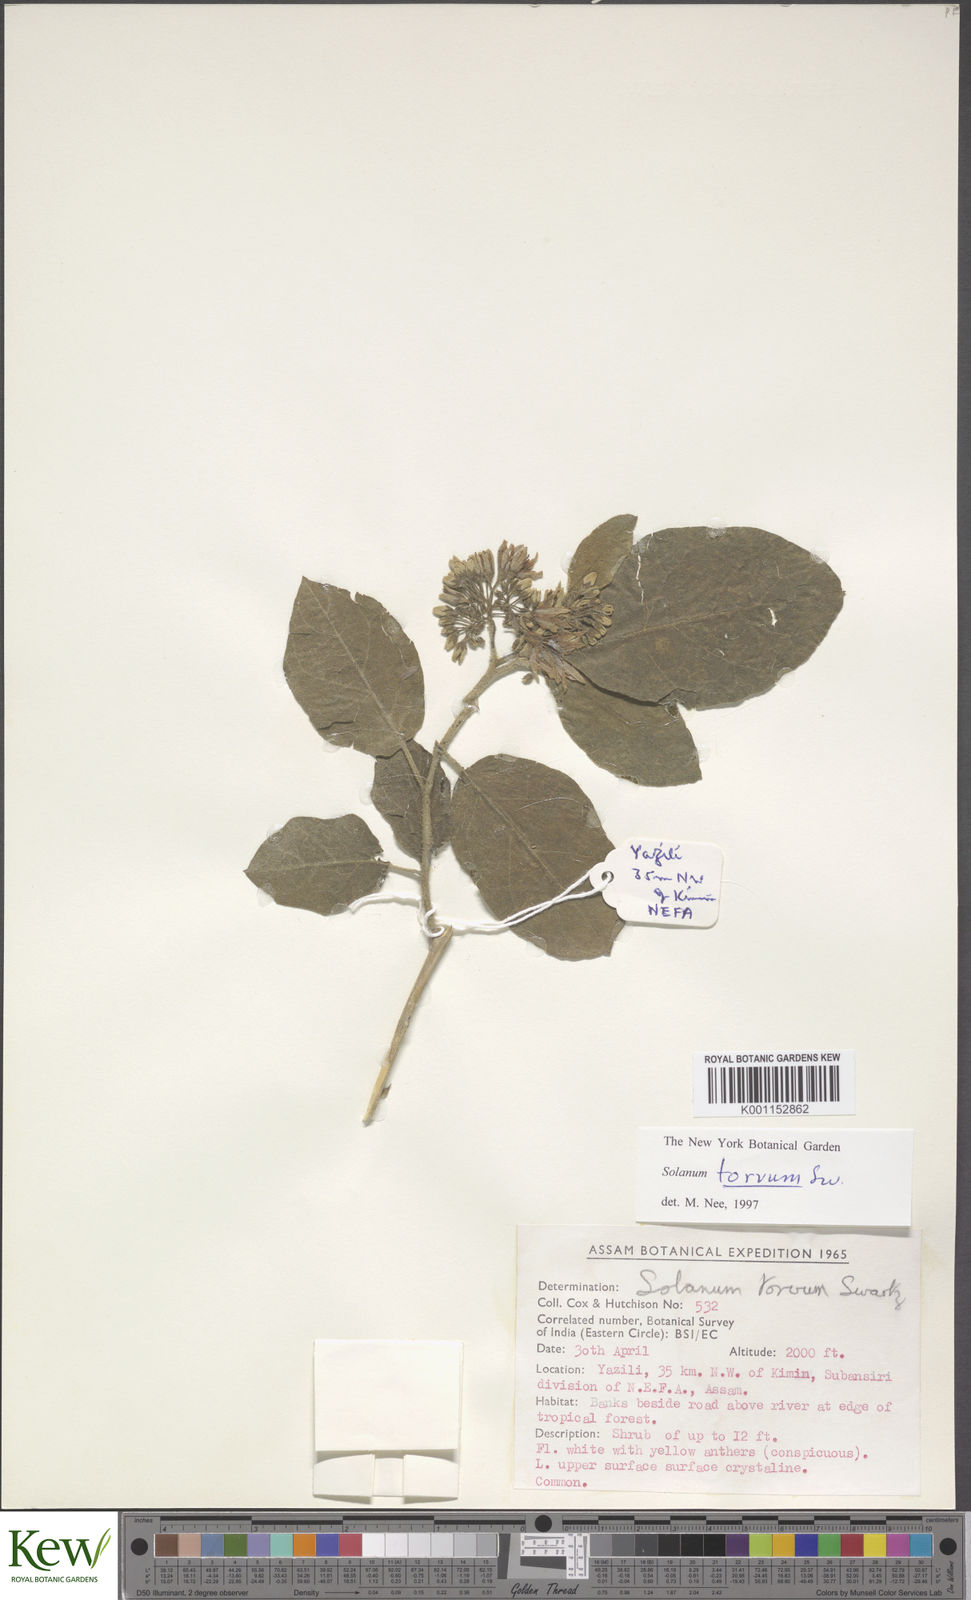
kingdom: Plantae
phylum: Tracheophyta
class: Magnoliopsida
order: Solanales
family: Solanaceae
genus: Solanum
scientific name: Solanum torvum
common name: Turkey berry
